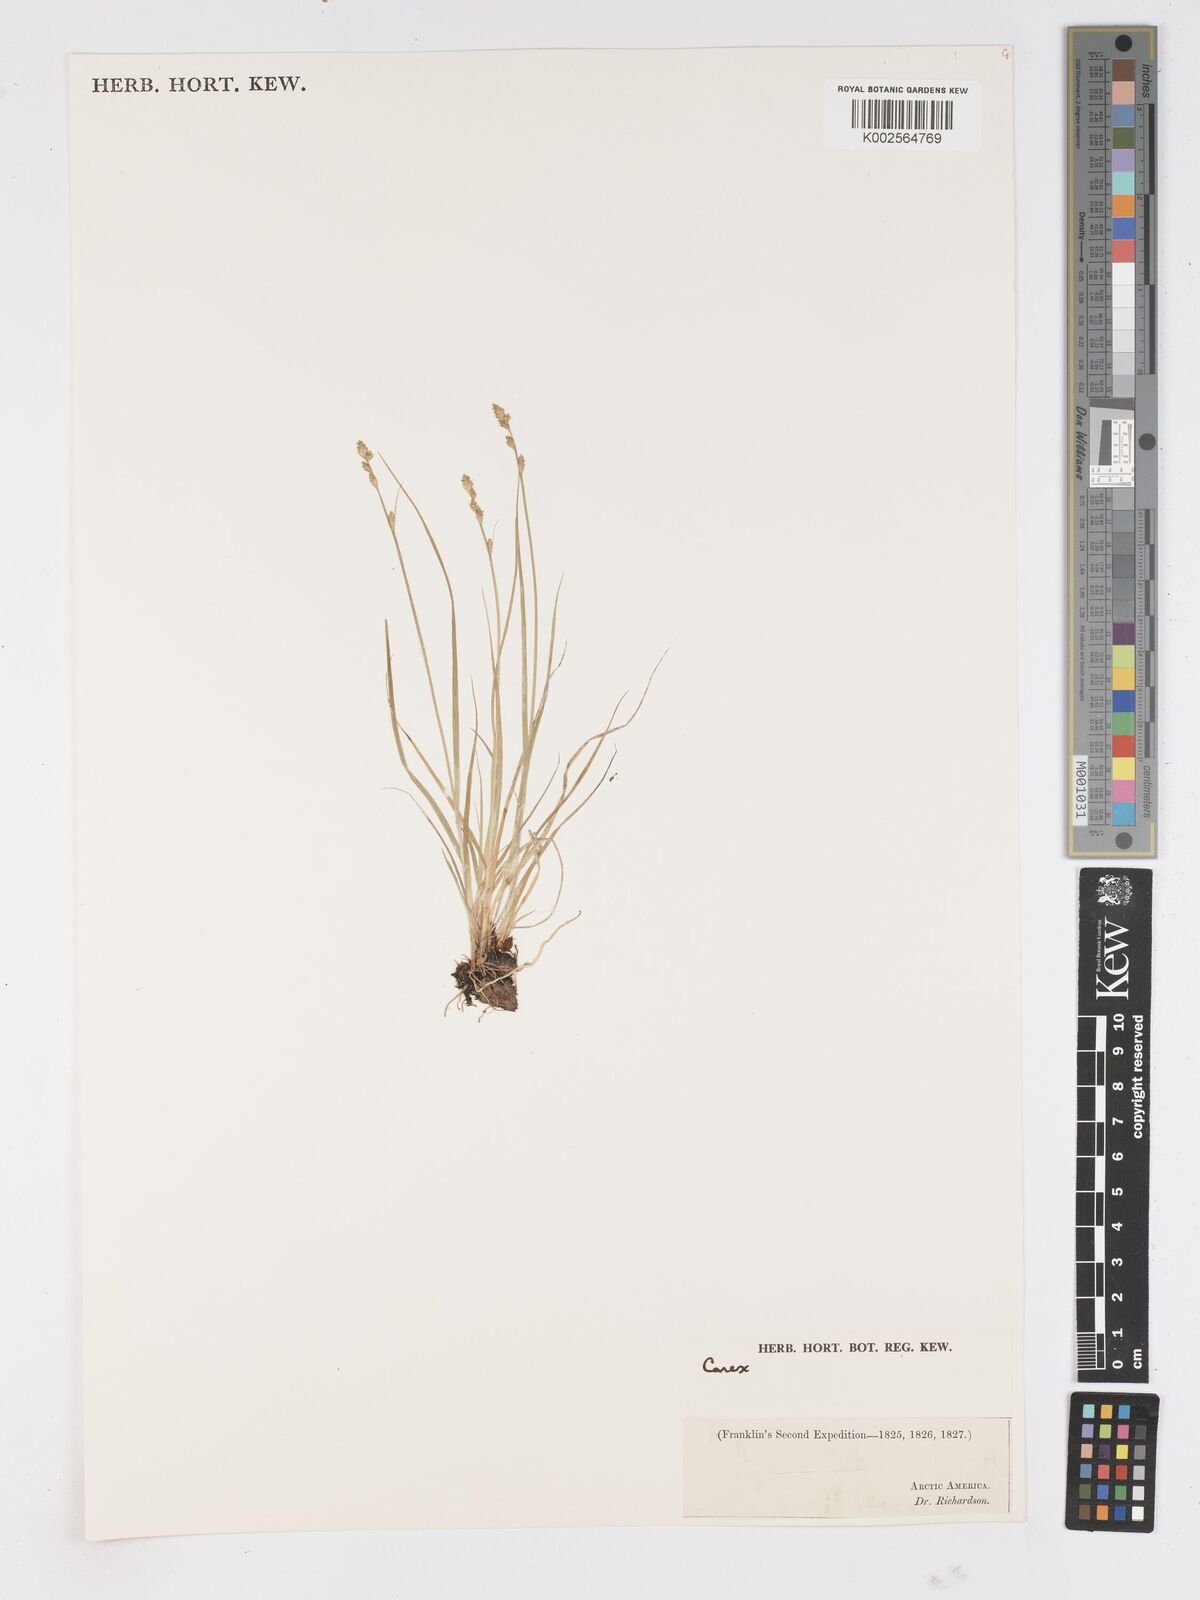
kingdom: Plantae
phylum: Tracheophyta
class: Liliopsida
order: Poales
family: Cyperaceae
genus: Carex
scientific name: Carex
